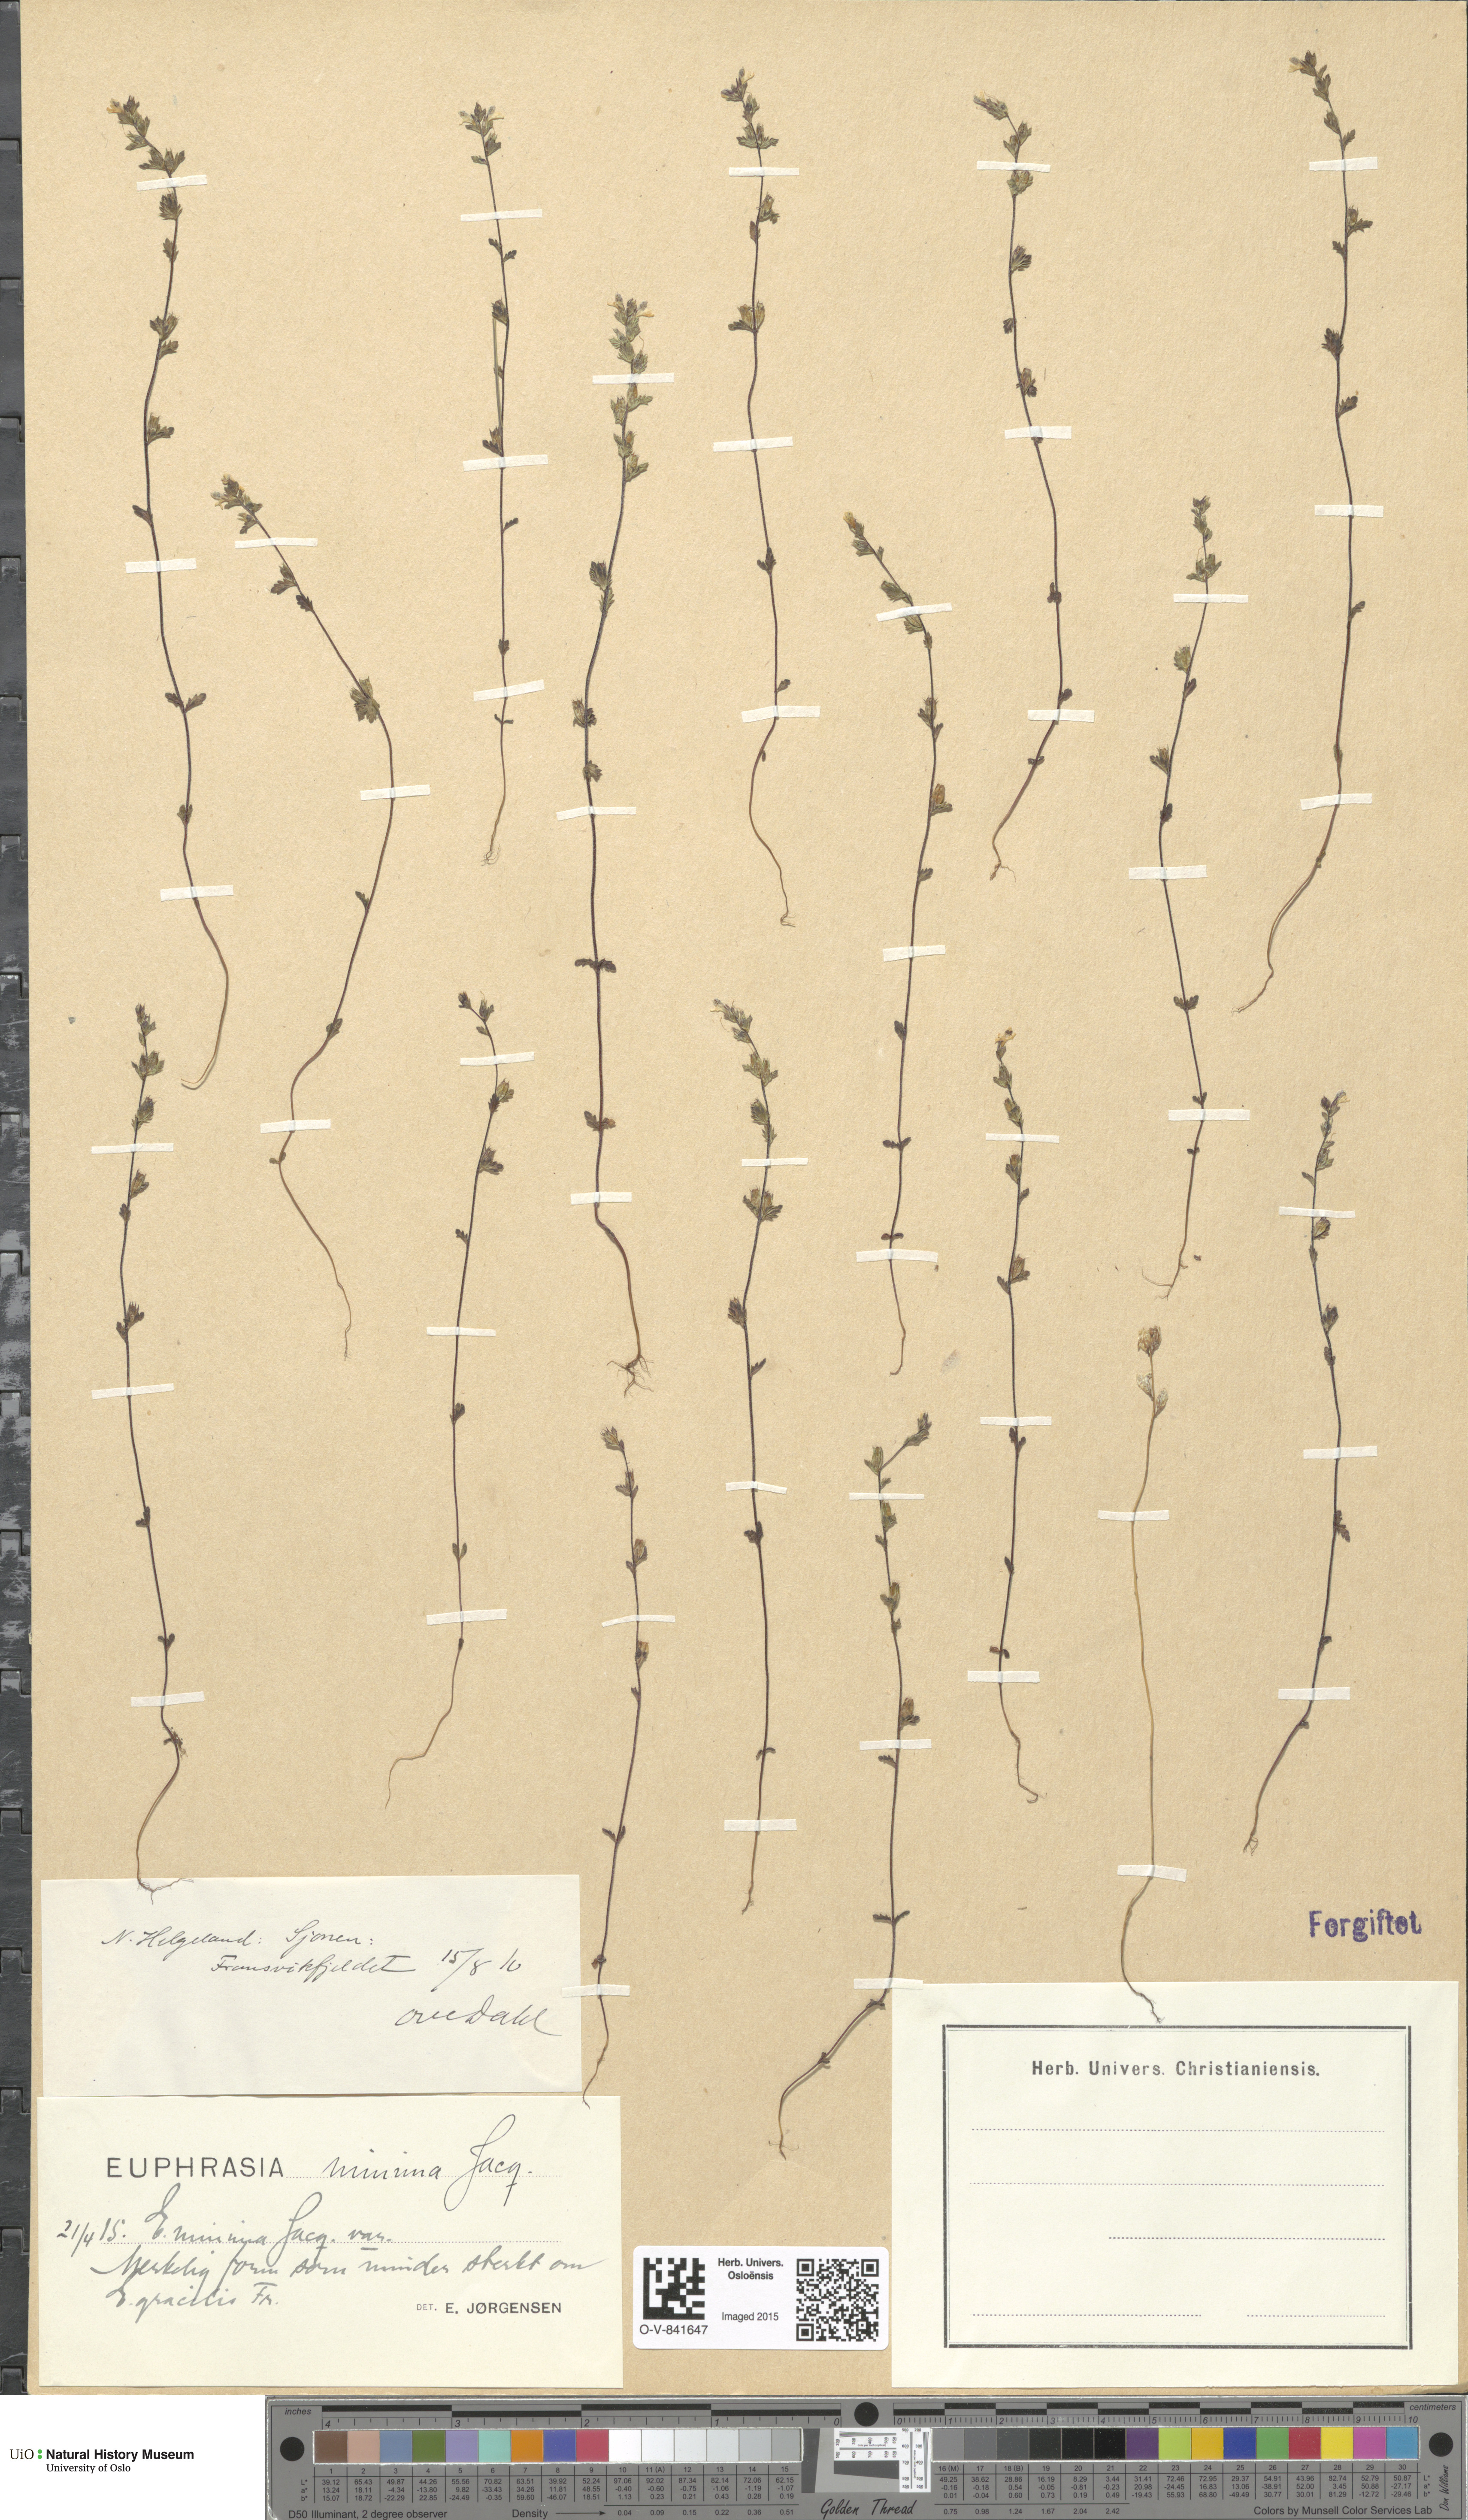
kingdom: Plantae
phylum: Tracheophyta
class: Magnoliopsida
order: Lamiales
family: Orobanchaceae
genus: Euphrasia
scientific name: Euphrasia wettsteinii
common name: Wettstein's eyebright
